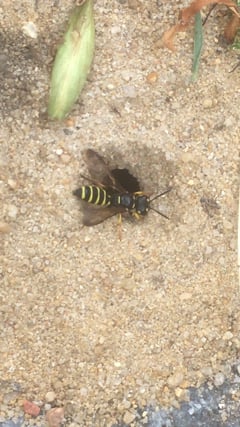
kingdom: Animalia
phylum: Arthropoda
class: Insecta
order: Hymenoptera
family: Crabronidae
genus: Cerceris
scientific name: Cerceris arenaria
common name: Sand tailed digger wasp
